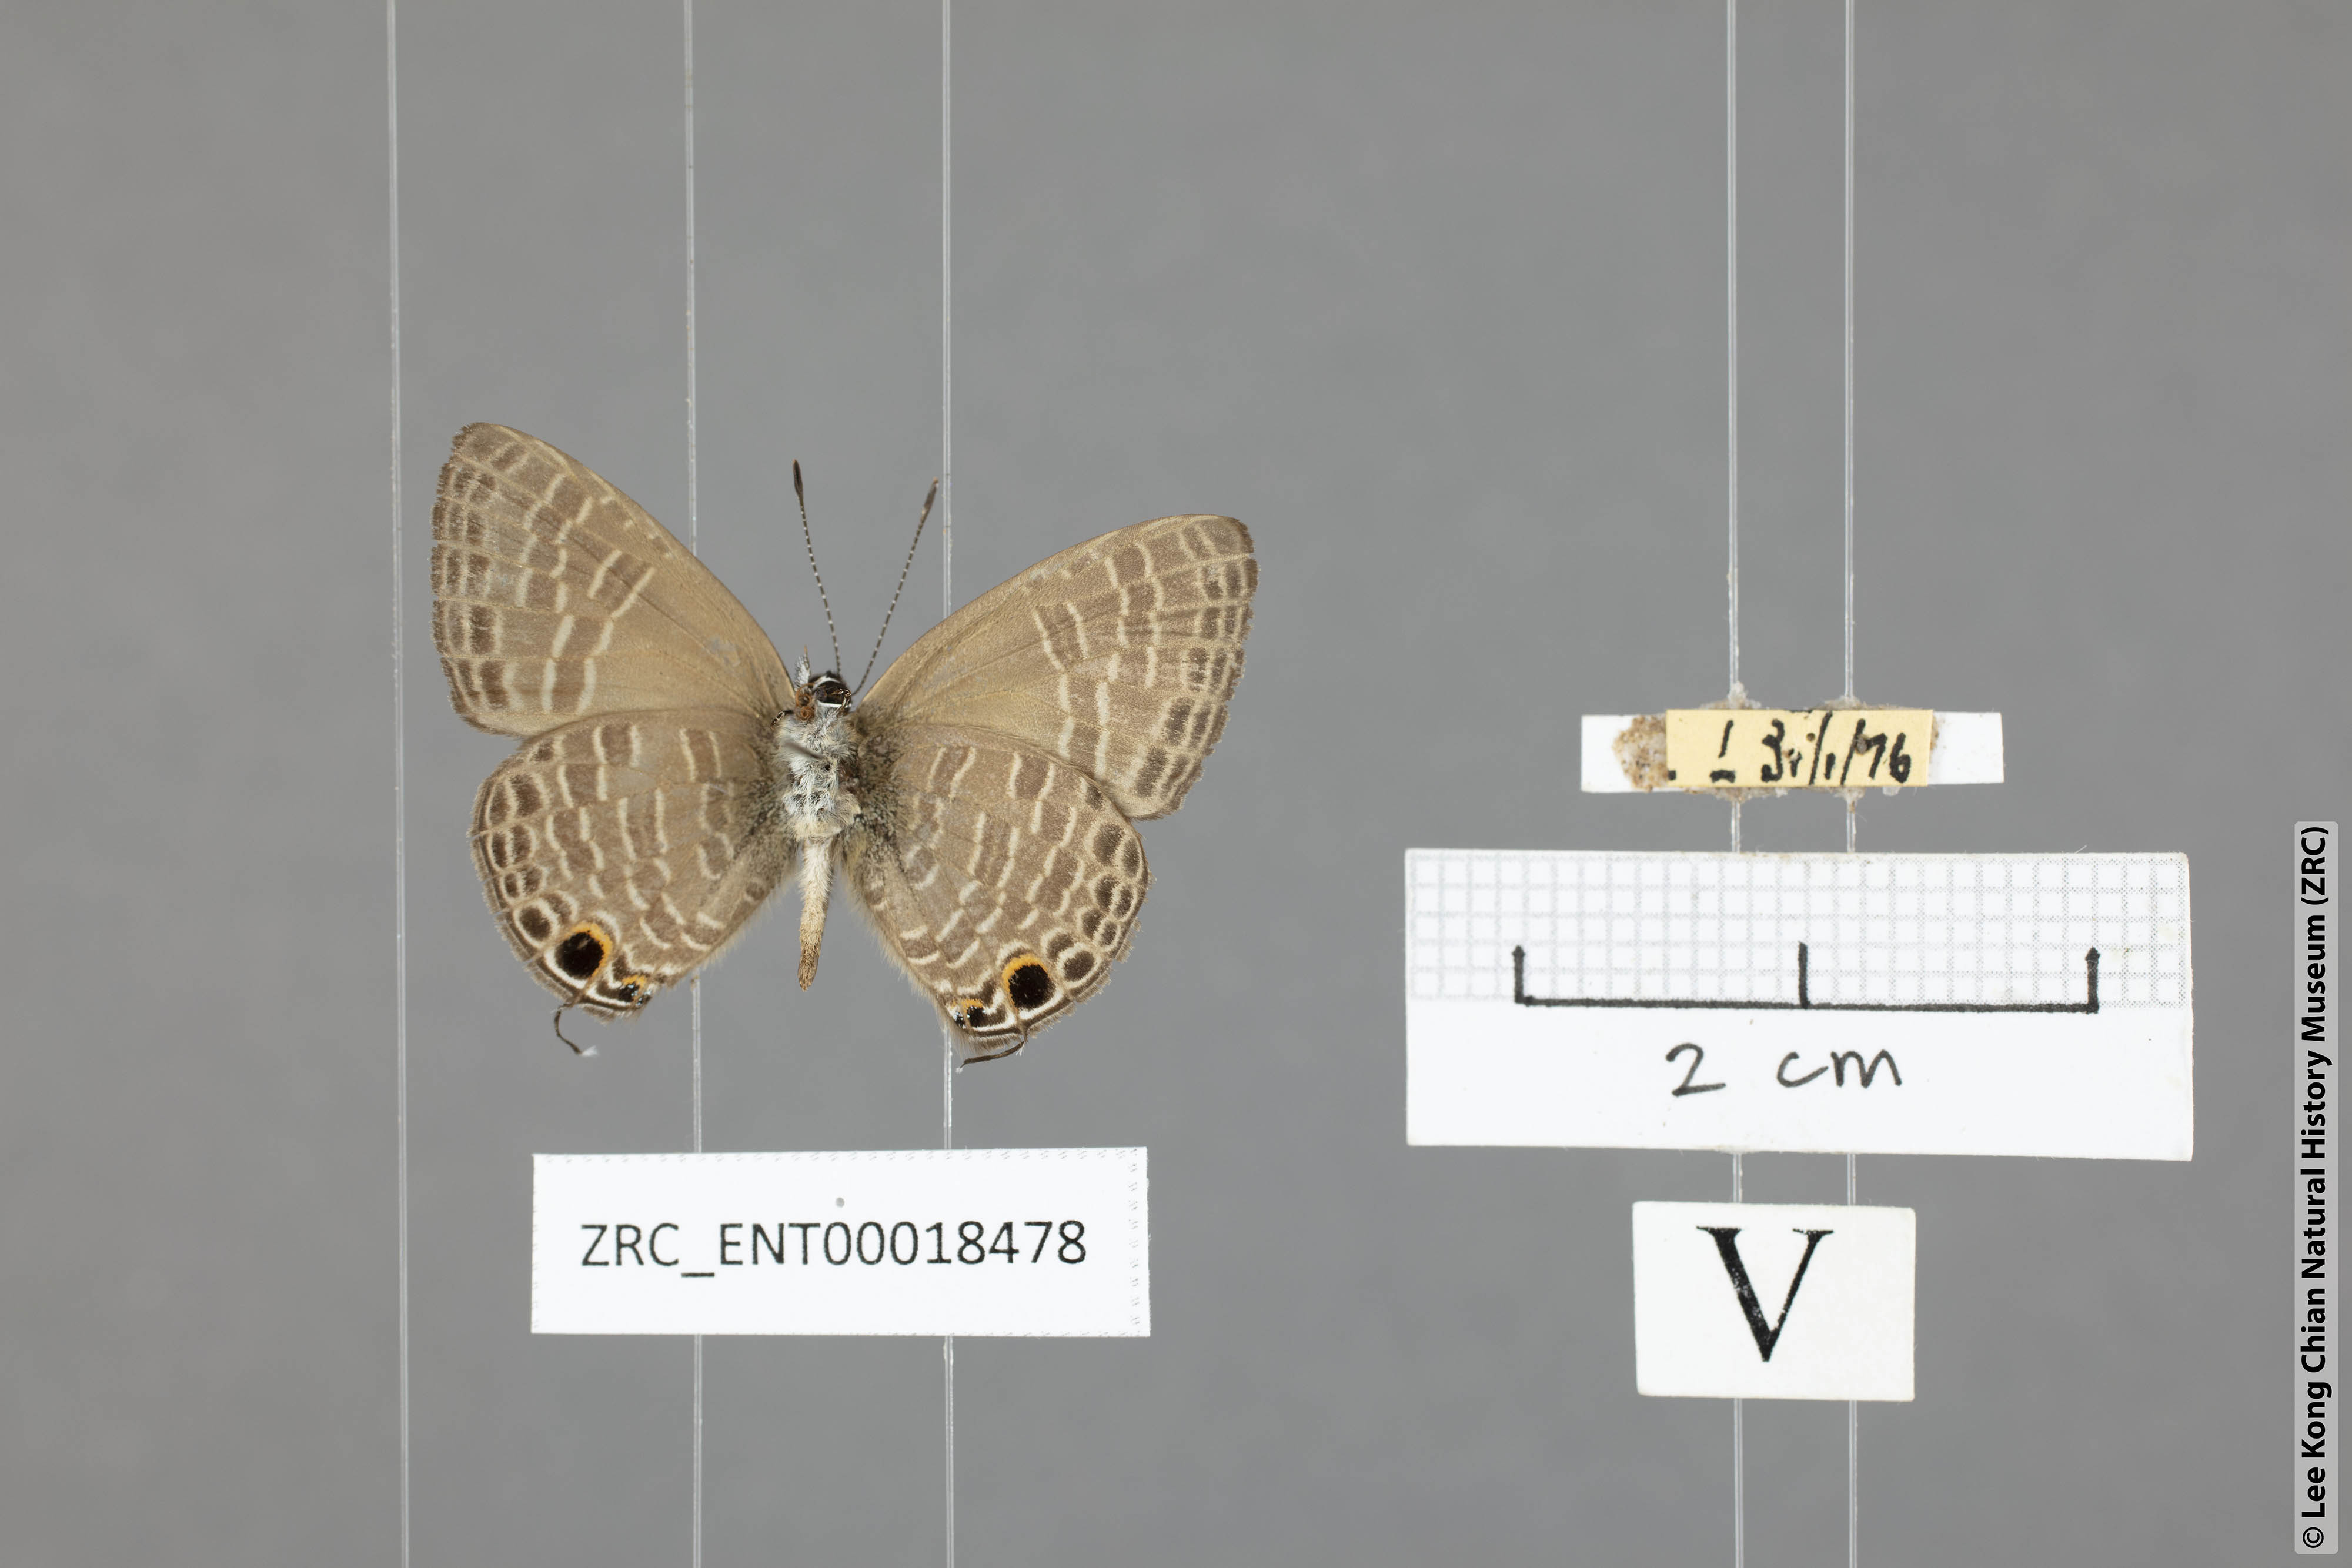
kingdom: Animalia
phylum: Arthropoda
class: Insecta
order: Lepidoptera
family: Lycaenidae
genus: Nacaduba
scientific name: Nacaduba subperusia
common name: Violet fourline blue
